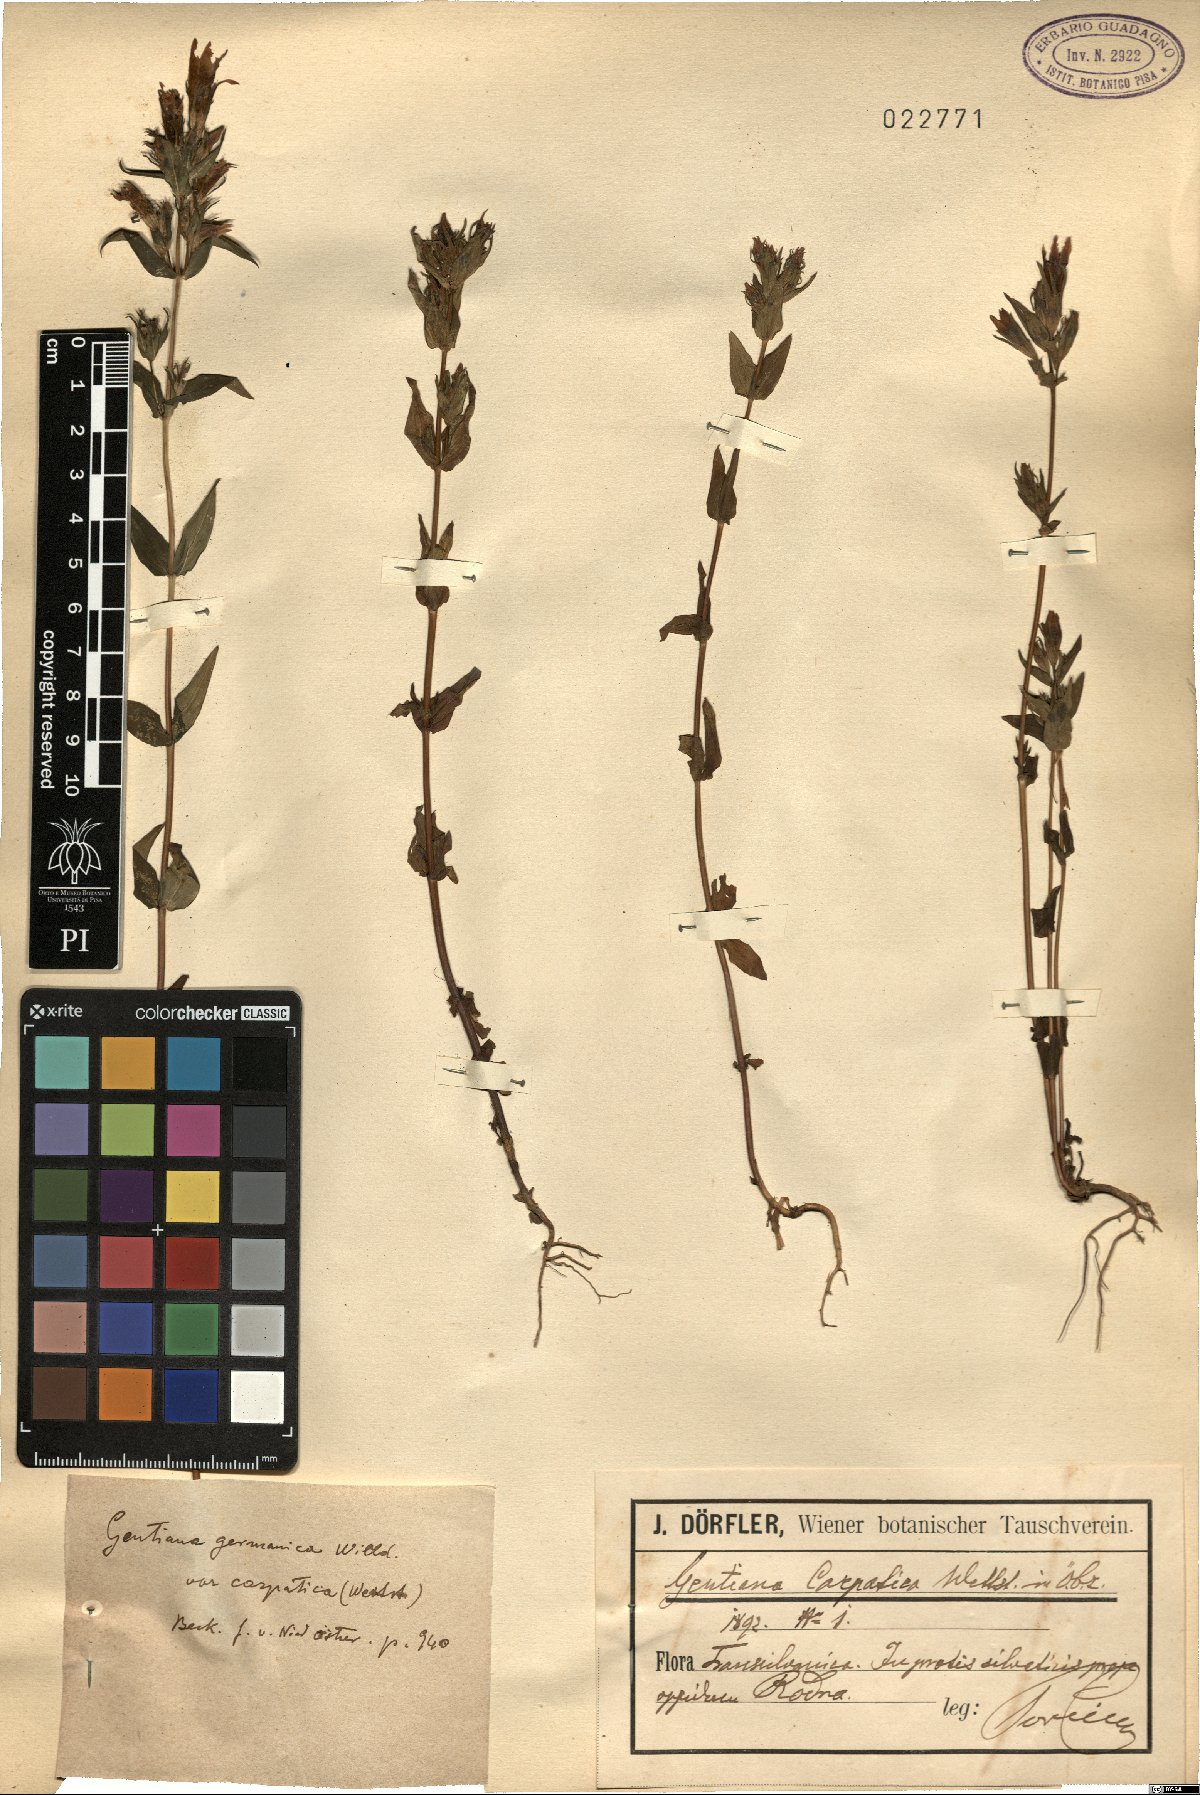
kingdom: Plantae
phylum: Tracheophyta
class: Magnoliopsida
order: Gentianales
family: Gentianaceae
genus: Gentianella
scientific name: Gentianella praecox
